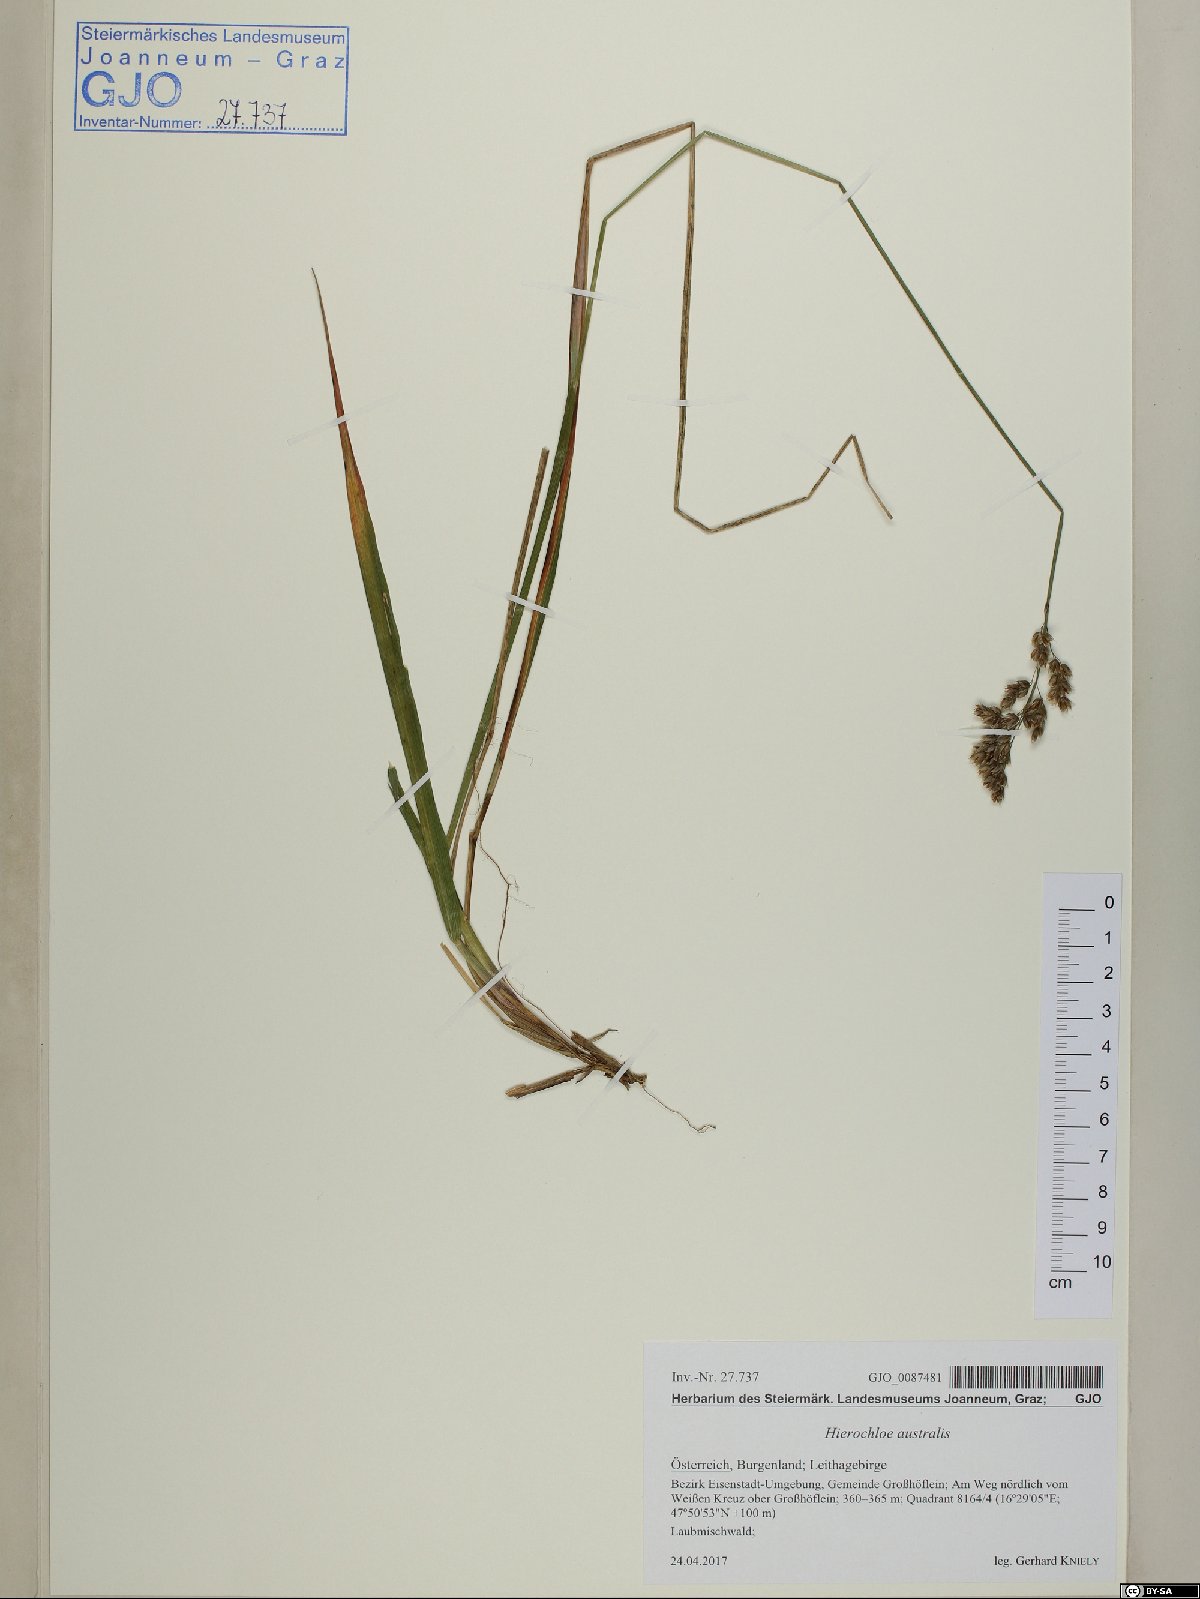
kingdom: Plantae
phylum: Tracheophyta
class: Liliopsida
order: Poales
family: Poaceae
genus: Anthoxanthum
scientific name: Anthoxanthum australe
